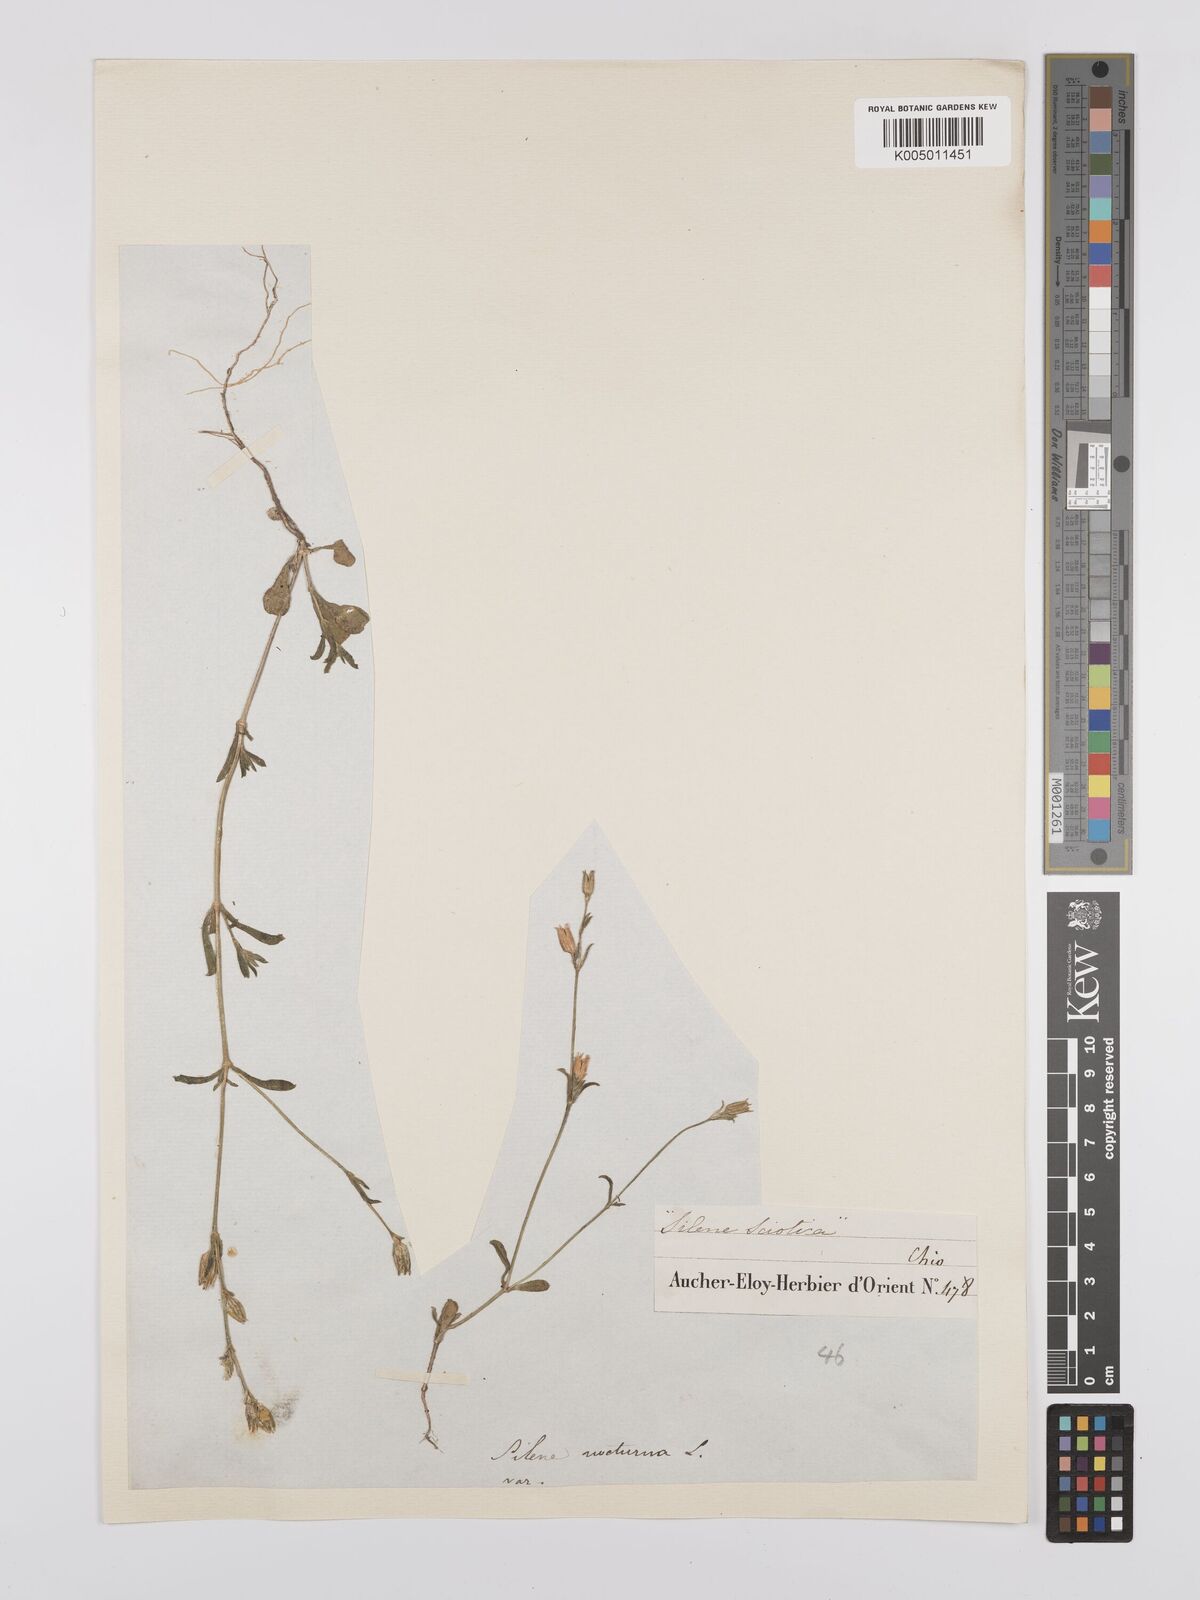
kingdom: Plantae
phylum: Tracheophyta
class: Magnoliopsida
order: Caryophyllales
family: Caryophyllaceae
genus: Silene
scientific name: Silene nocturna
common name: Mediterranean catchfly
